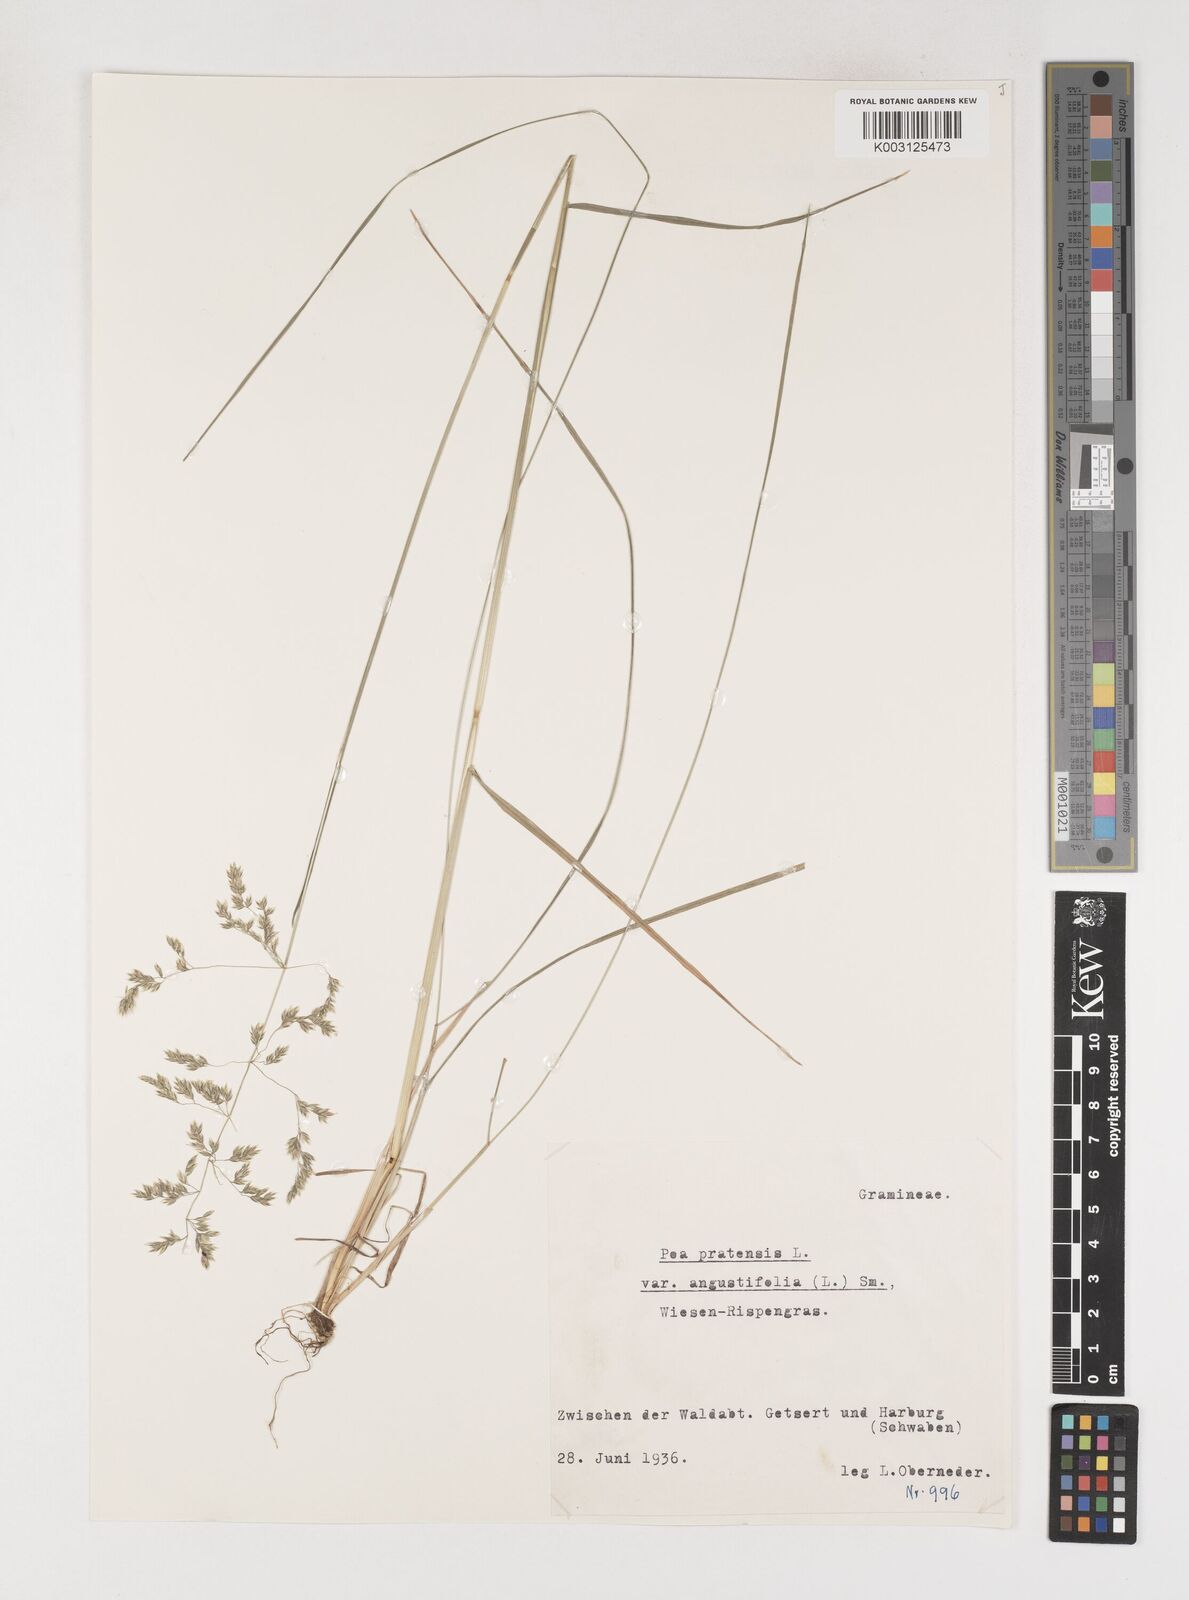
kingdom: Plantae
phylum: Tracheophyta
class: Liliopsida
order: Poales
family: Poaceae
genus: Poa
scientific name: Poa angustifolia
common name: Narrow-leaved meadow-grass
